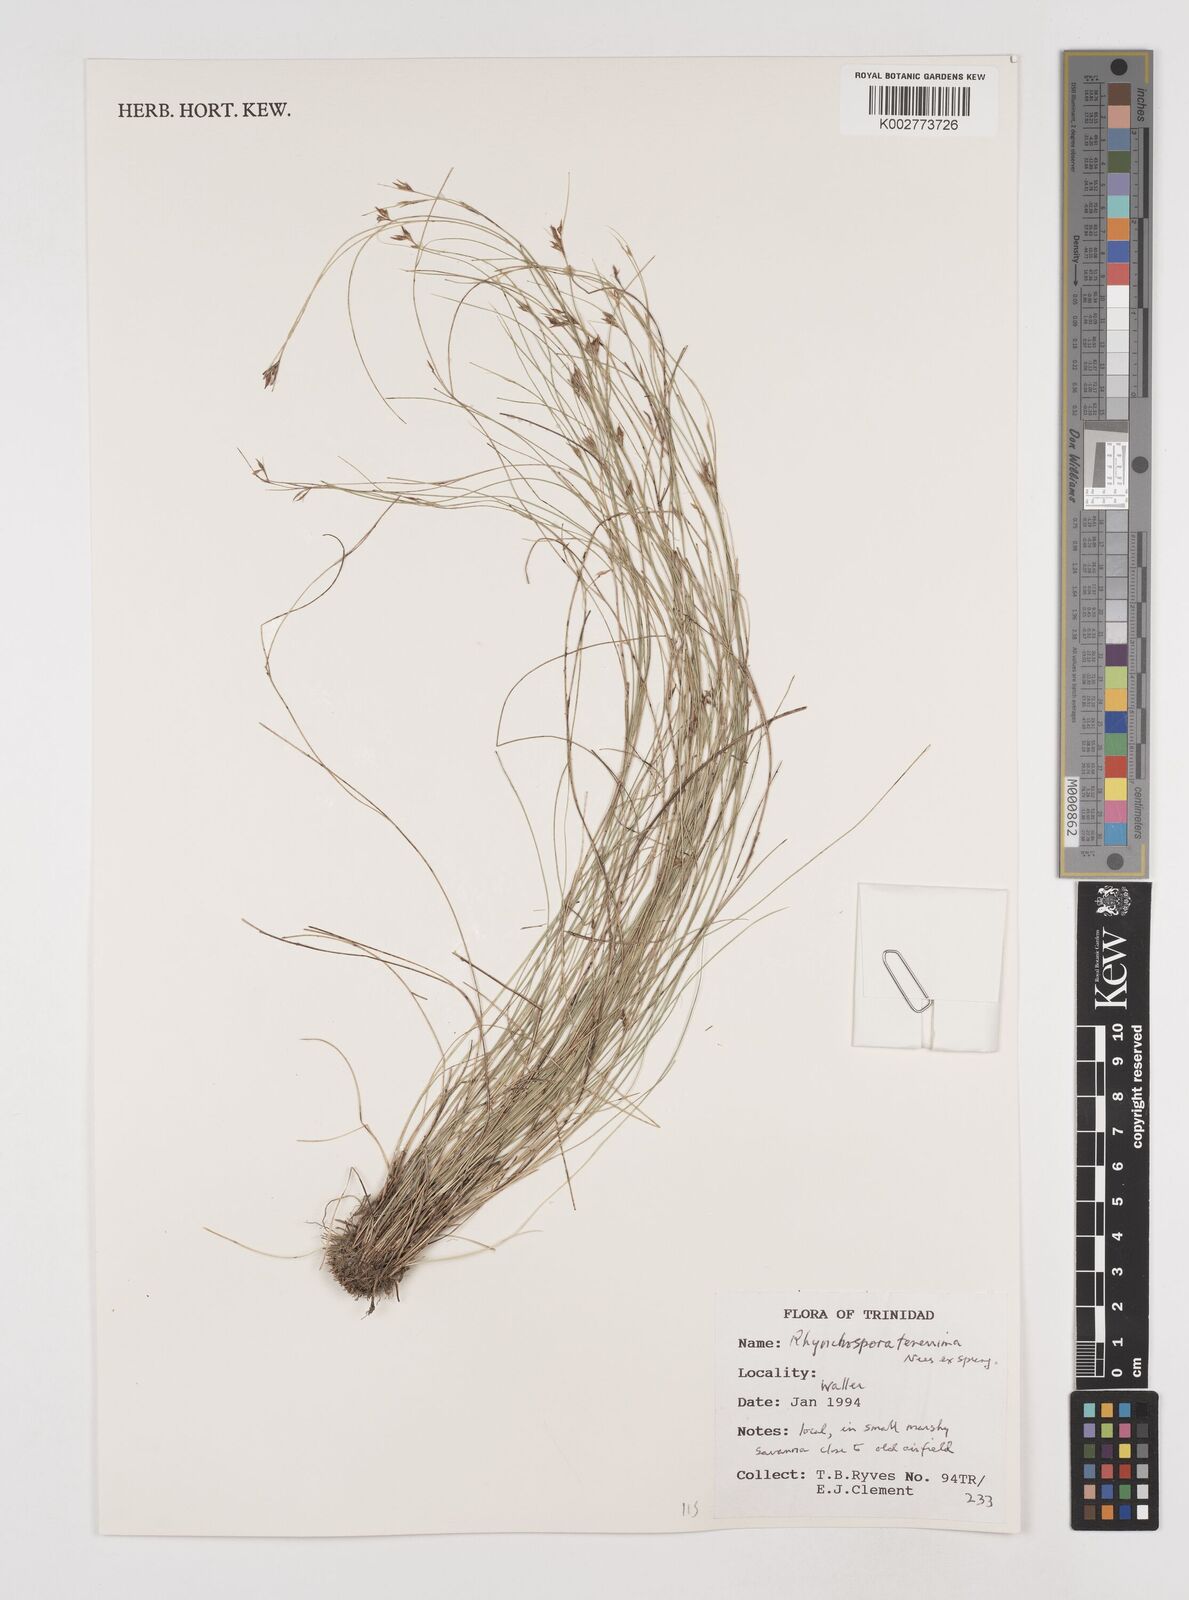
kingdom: Plantae
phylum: Tracheophyta
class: Liliopsida
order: Poales
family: Cyperaceae
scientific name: Cyperaceae
